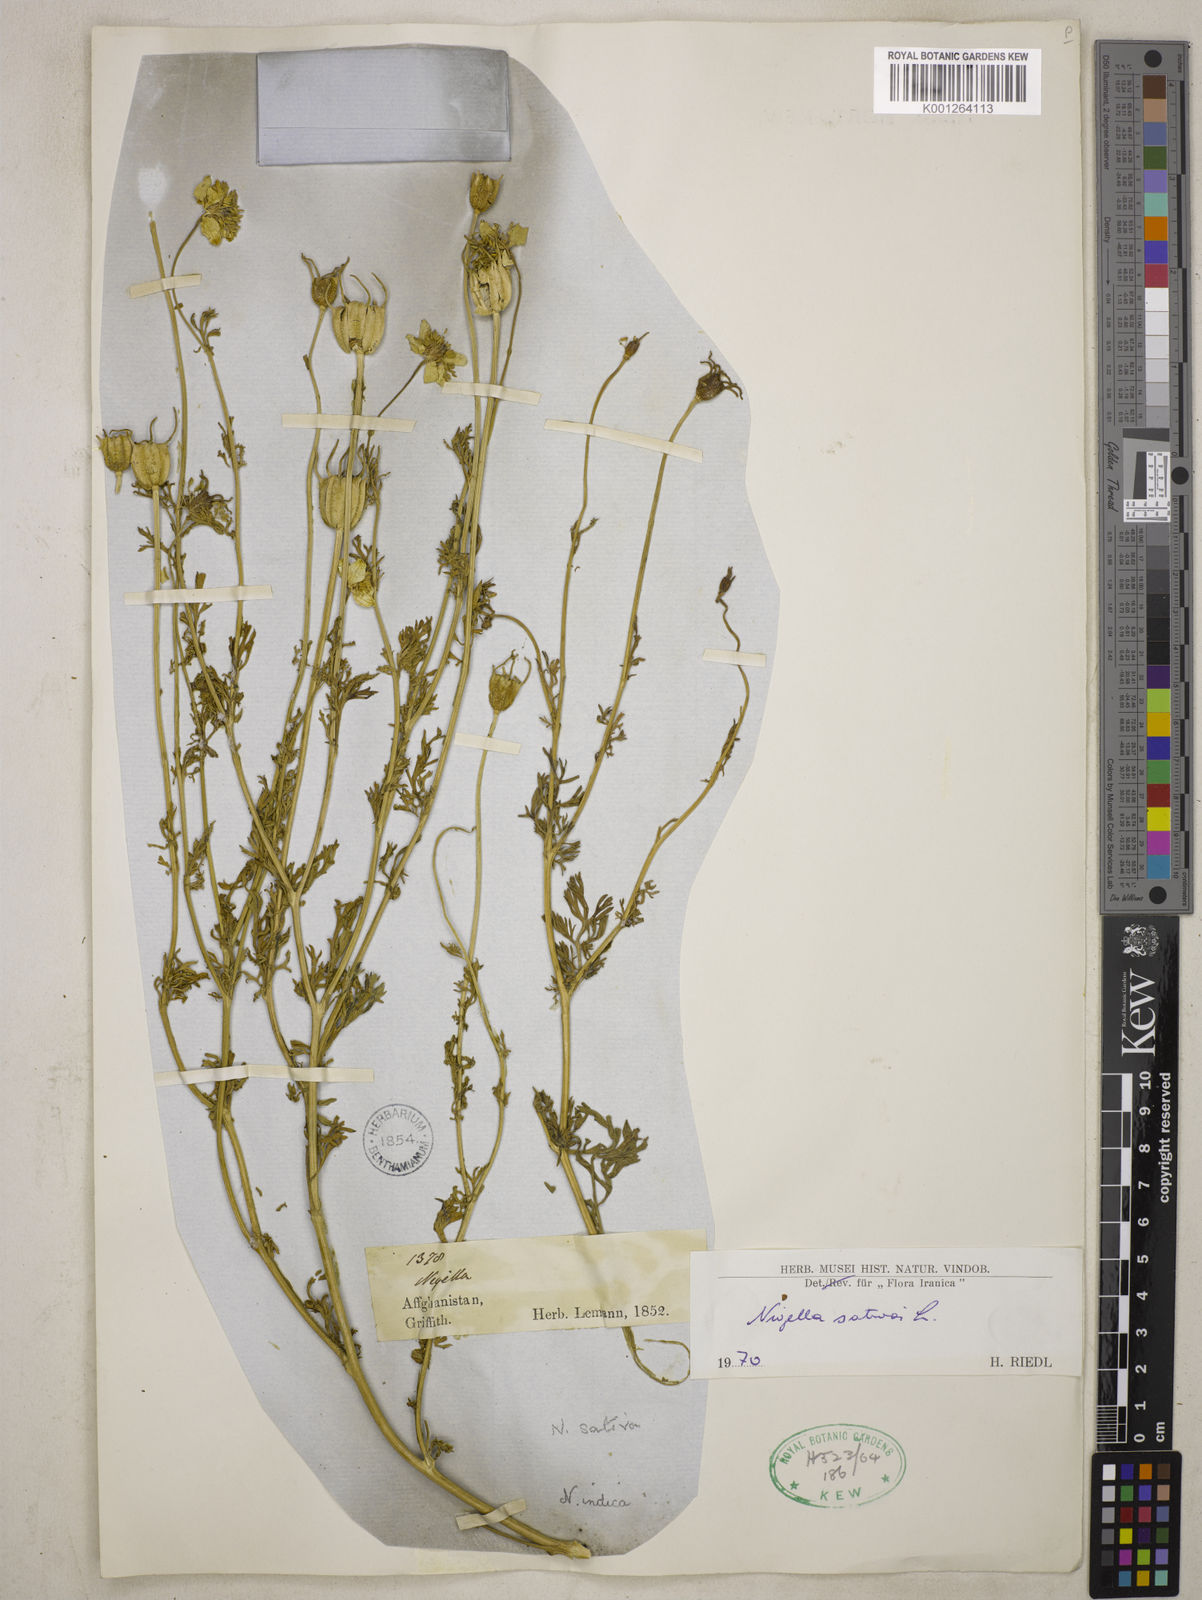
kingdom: Plantae
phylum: Tracheophyta
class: Magnoliopsida
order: Ranunculales
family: Ranunculaceae
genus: Nigella
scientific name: Nigella sativa
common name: Black-cumin
